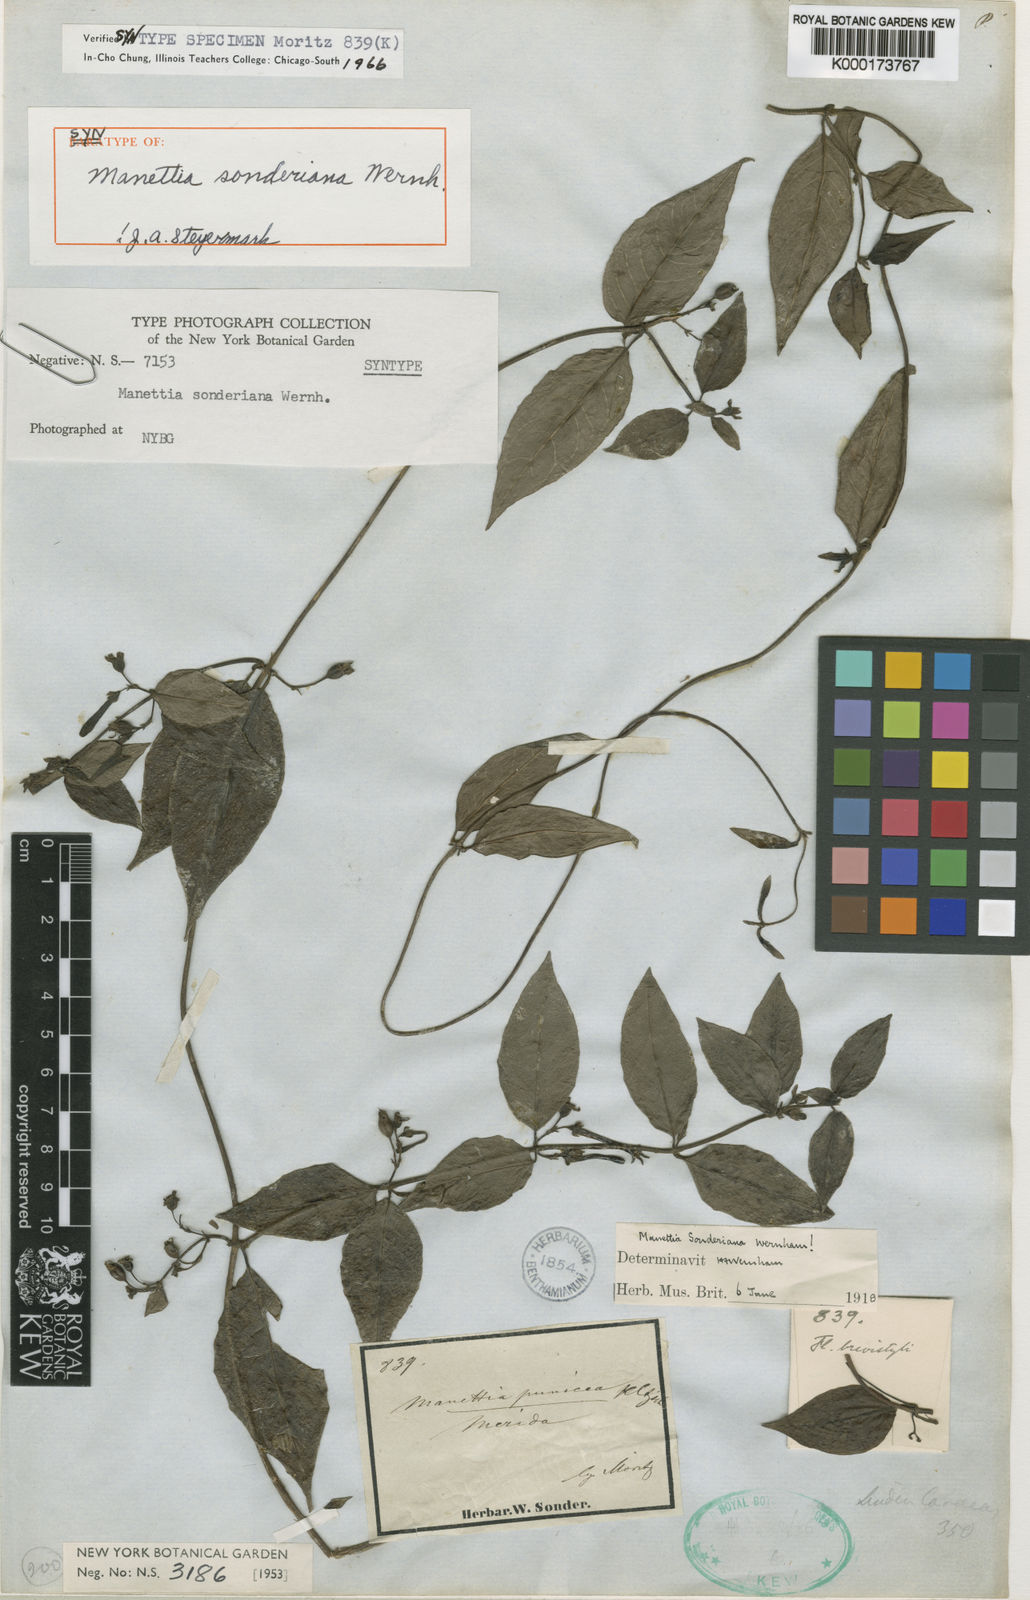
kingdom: Plantae
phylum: Tracheophyta
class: Magnoliopsida
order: Gentianales
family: Rubiaceae
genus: Manettia
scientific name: Manettia sonderiana
